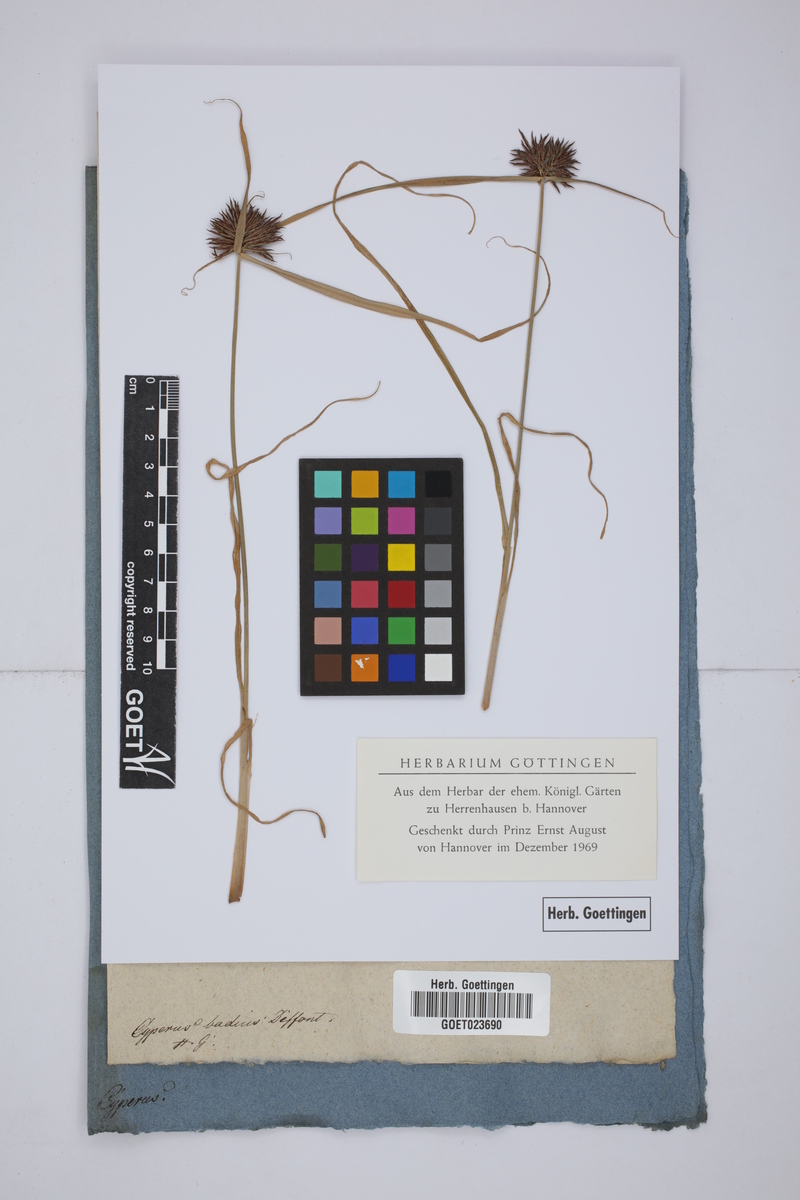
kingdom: Plantae
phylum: Tracheophyta
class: Liliopsida
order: Poales
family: Cyperaceae
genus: Cyperus
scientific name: Cyperus longus
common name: Galingale
